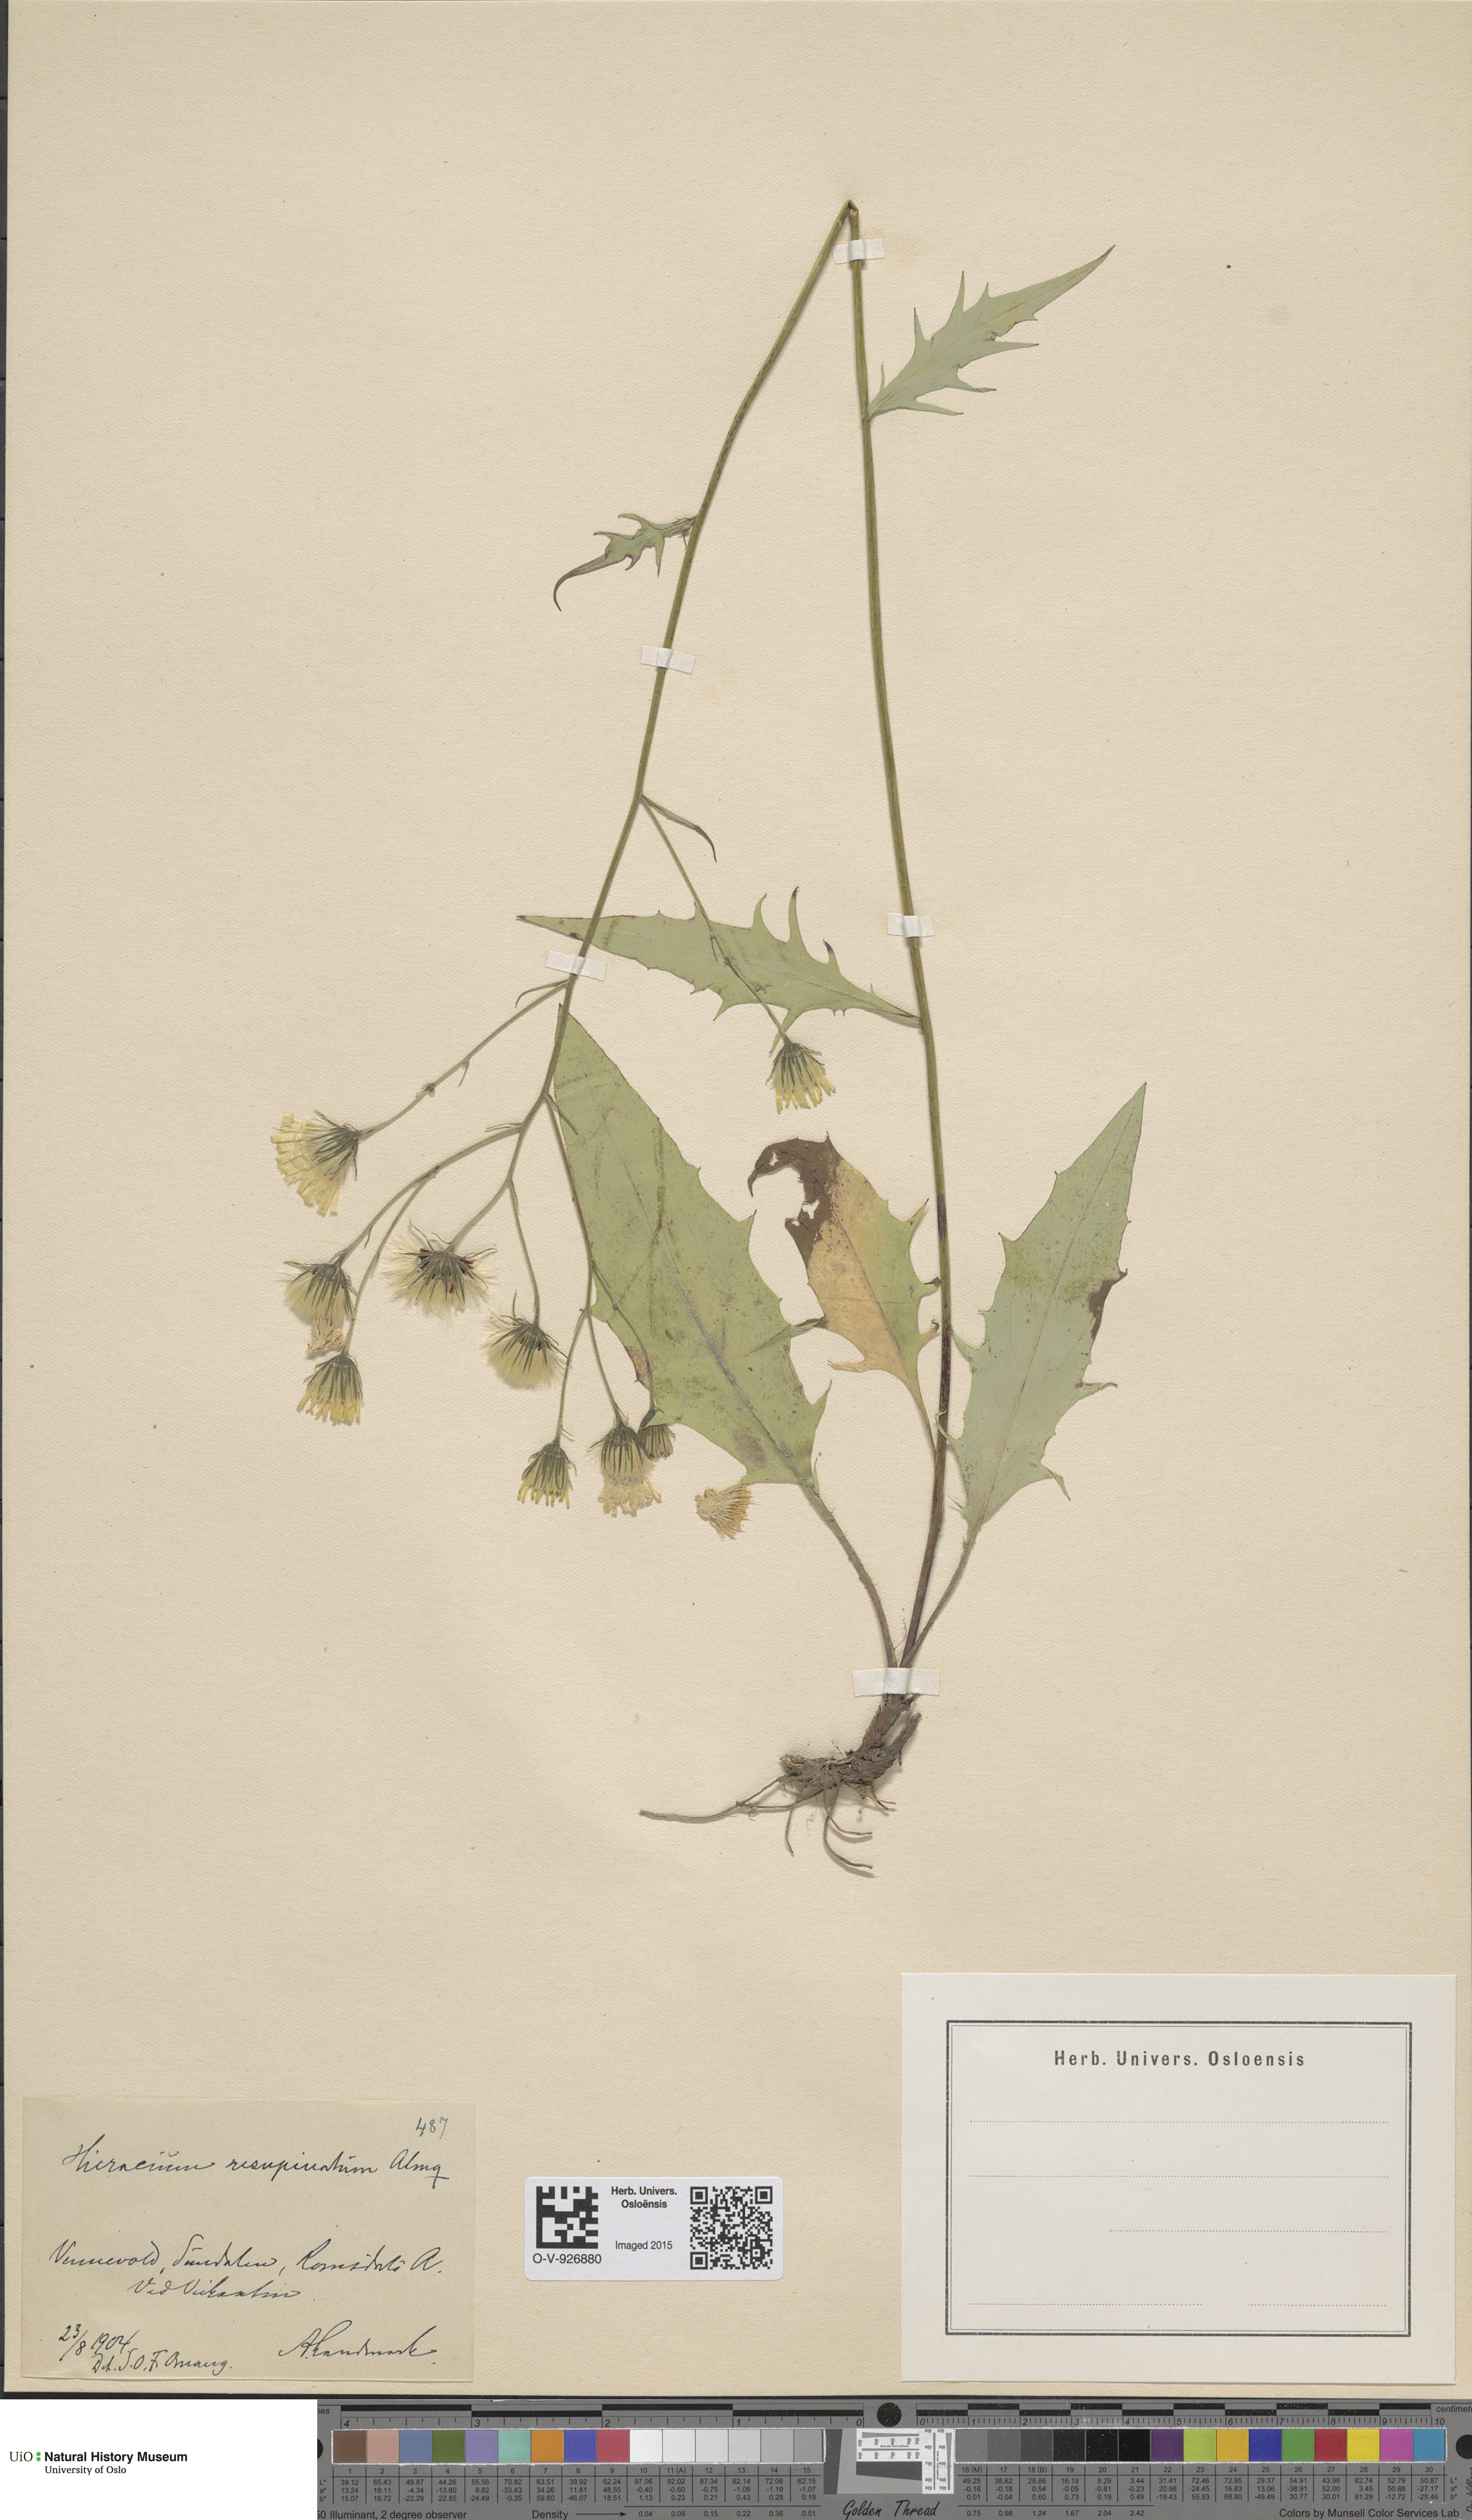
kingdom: Plantae
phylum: Tracheophyta
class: Magnoliopsida
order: Asterales
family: Asteraceae
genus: Hieracium
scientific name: Hieracium resupinatum
